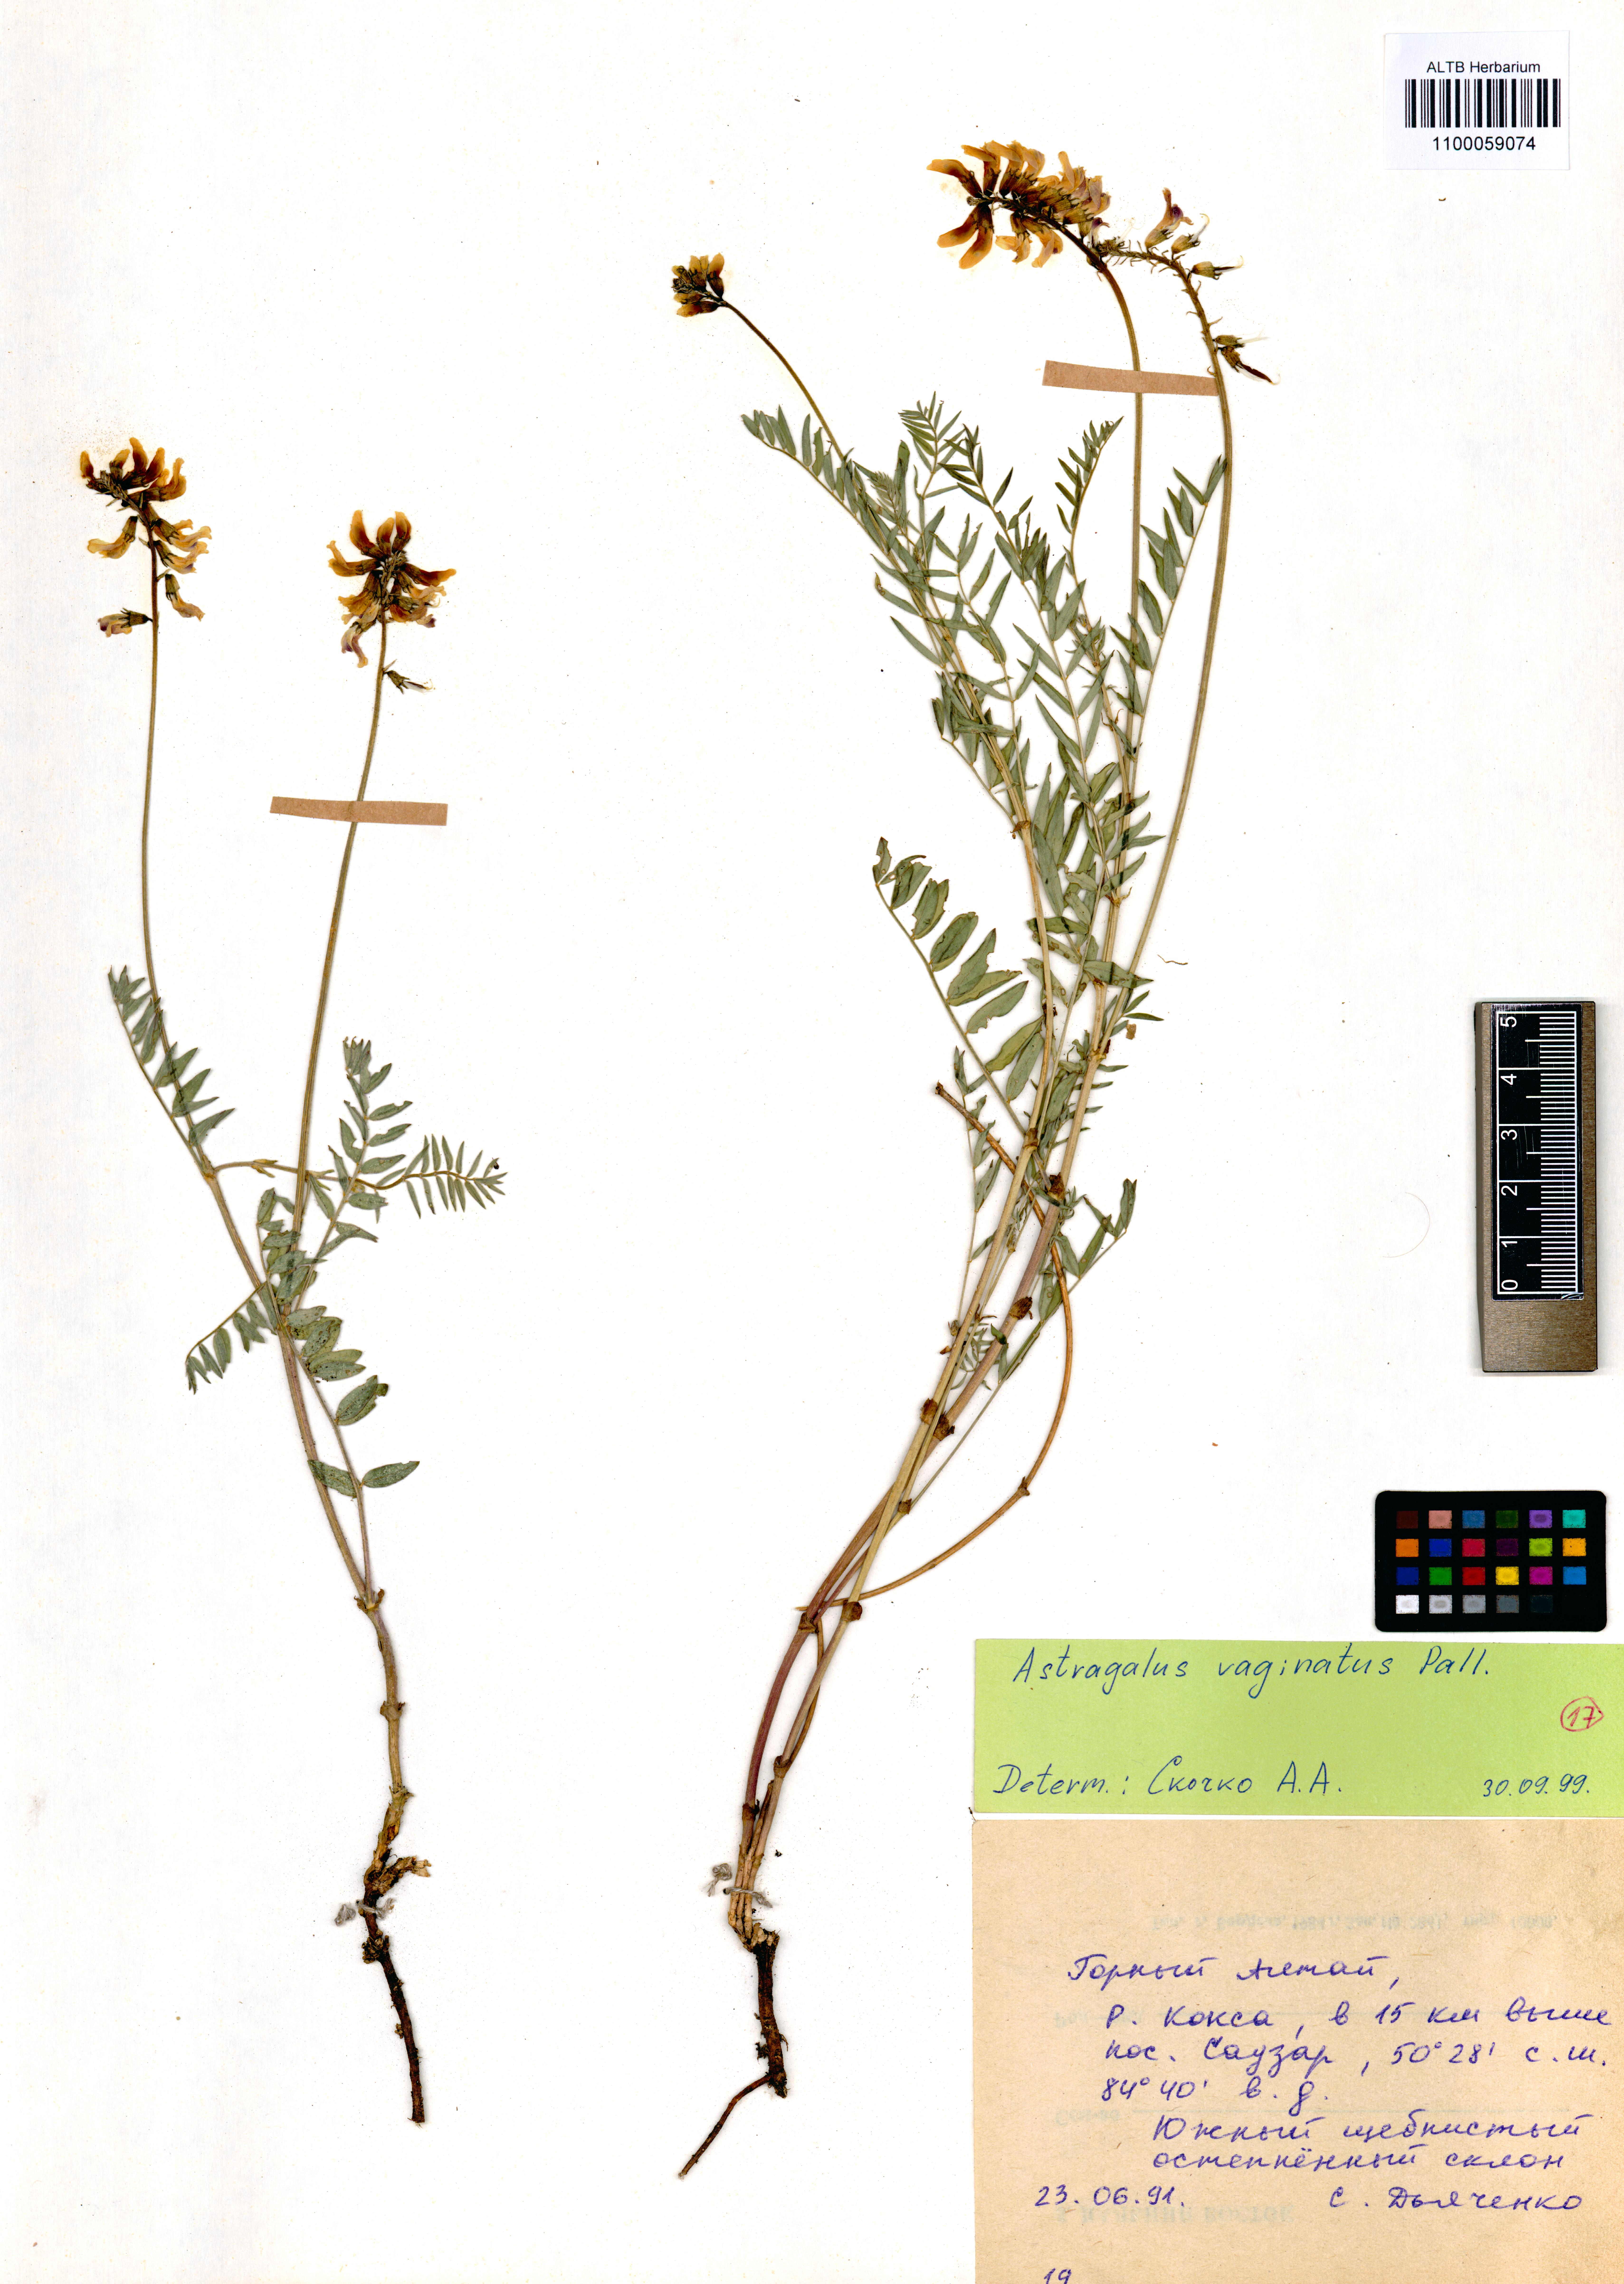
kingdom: Plantae
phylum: Tracheophyta
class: Magnoliopsida
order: Fabales
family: Fabaceae
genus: Astragalus
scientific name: Astragalus vaginatus
